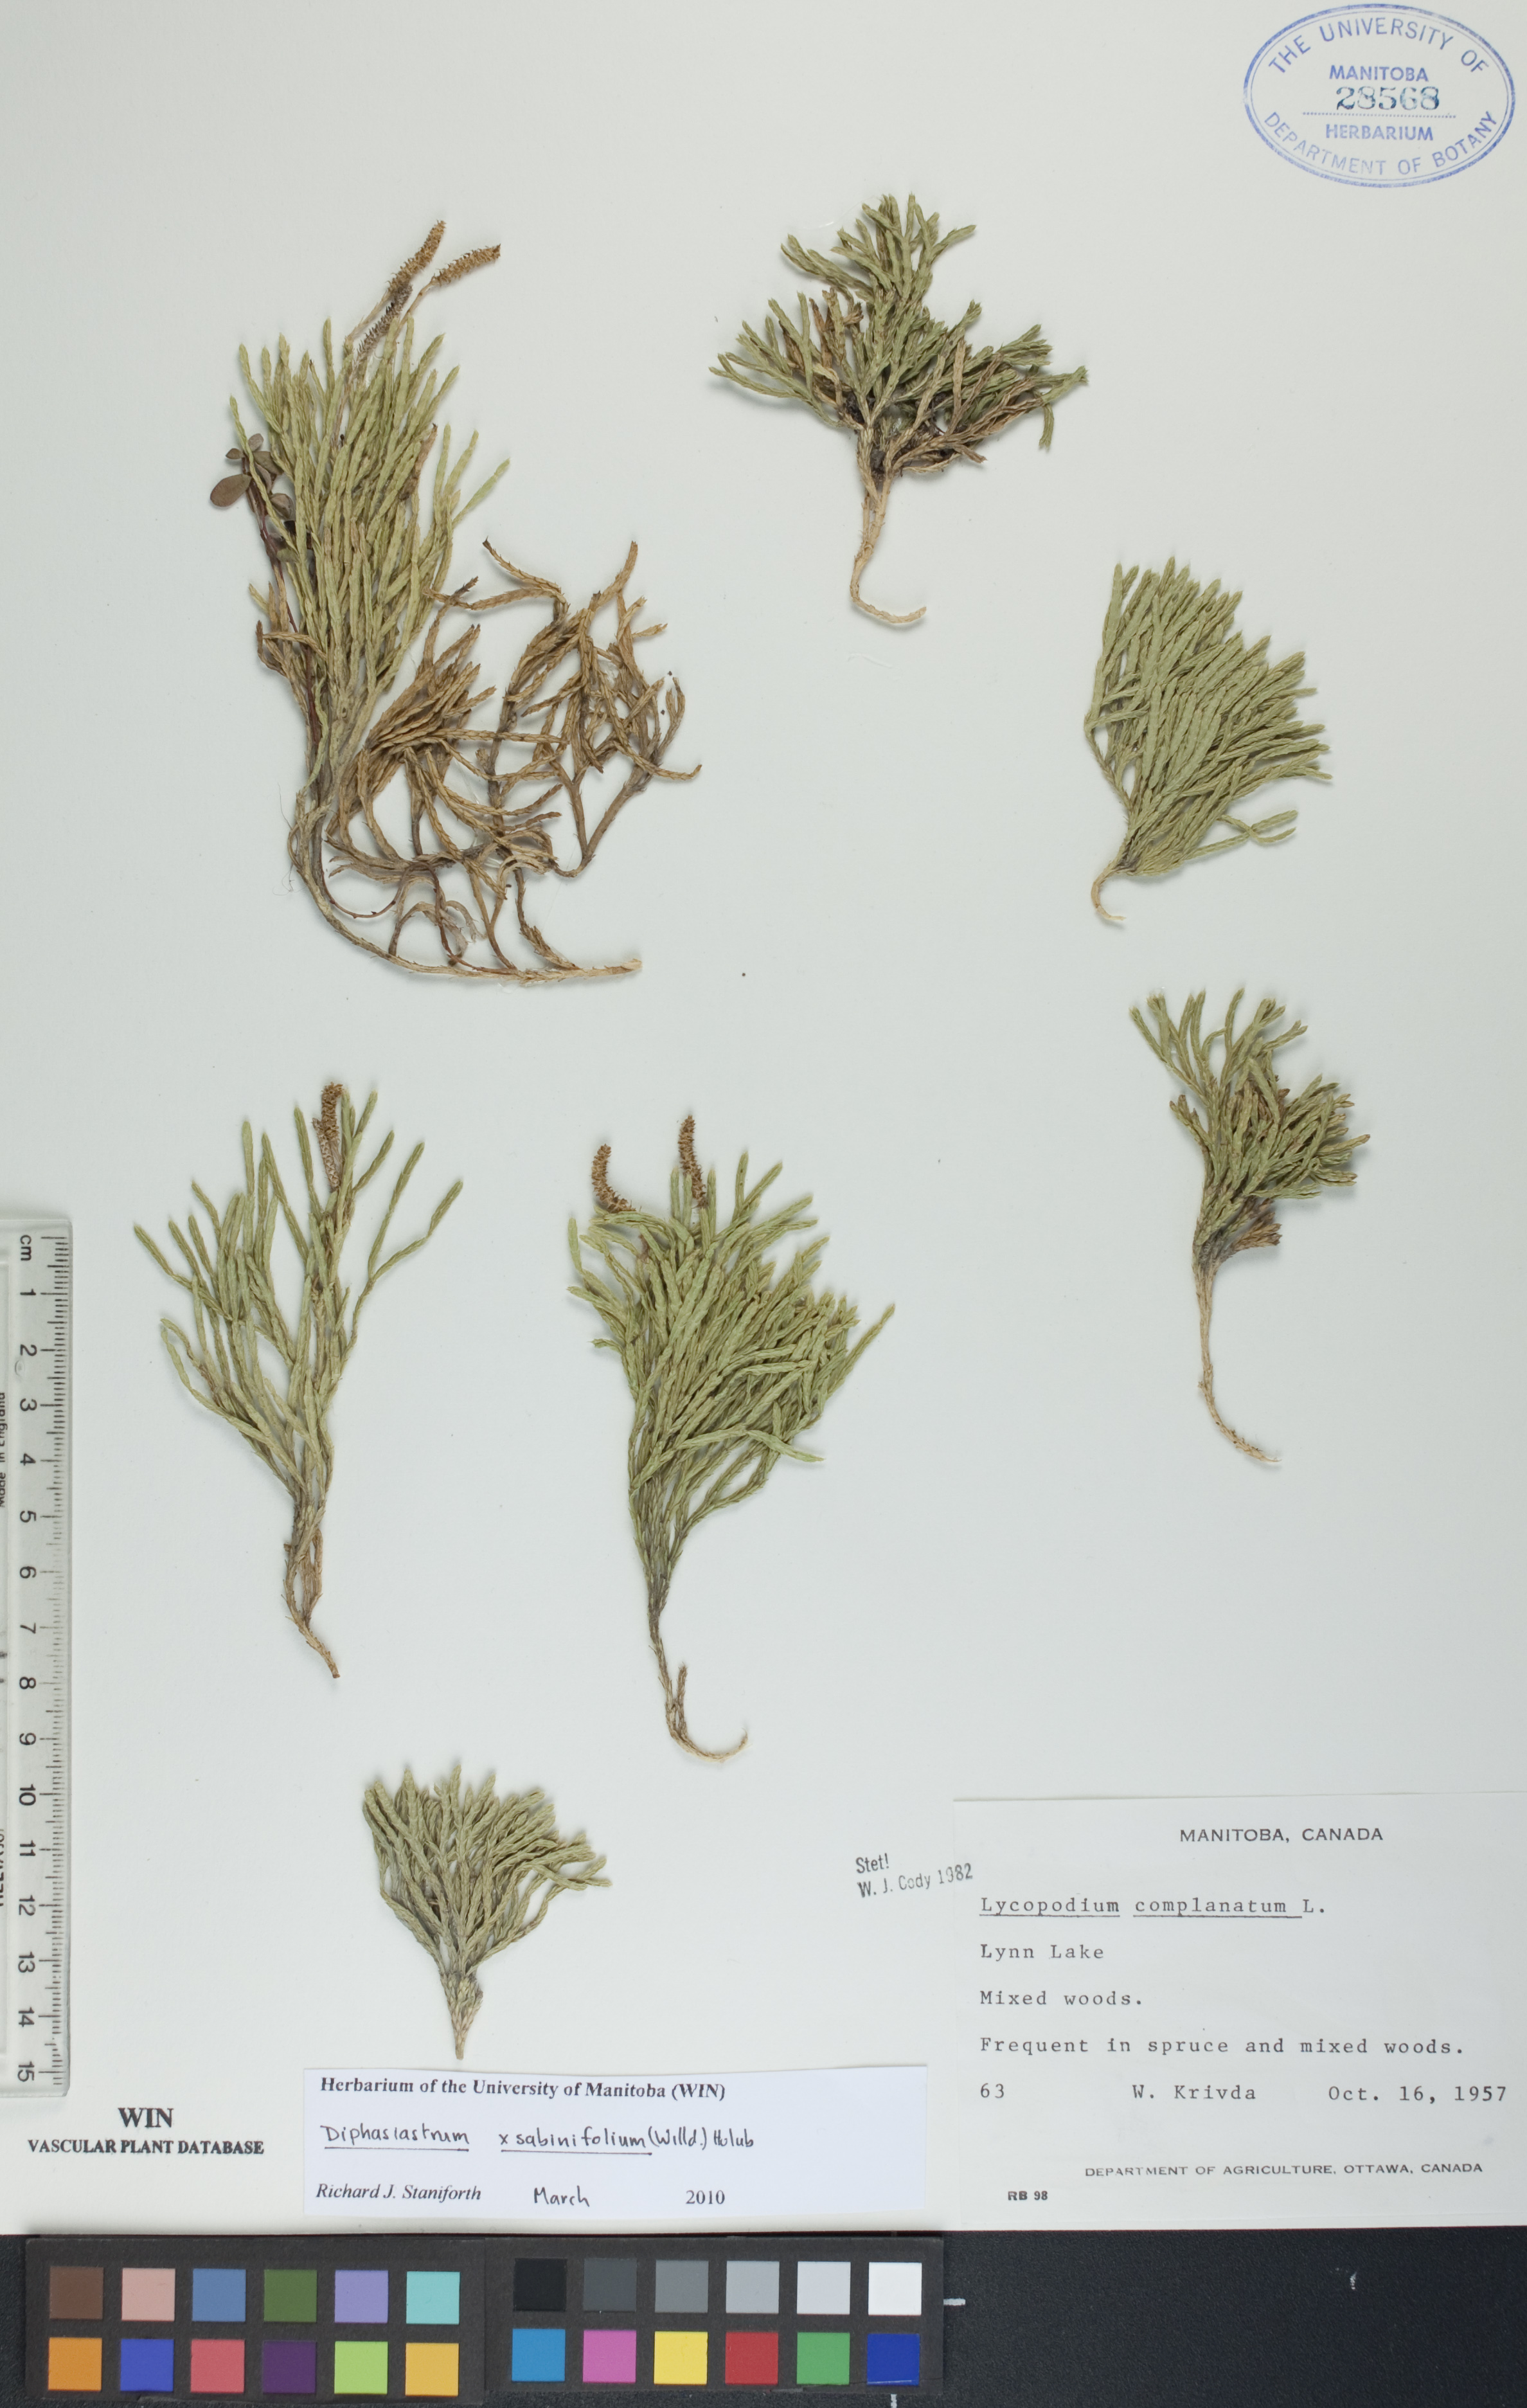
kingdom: Plantae
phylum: Tracheophyta
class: Lycopodiopsida
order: Lycopodiales
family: Lycopodiaceae
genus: Diphasiastrum
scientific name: Diphasiastrum sabinifolium
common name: Juniper clubmoss
